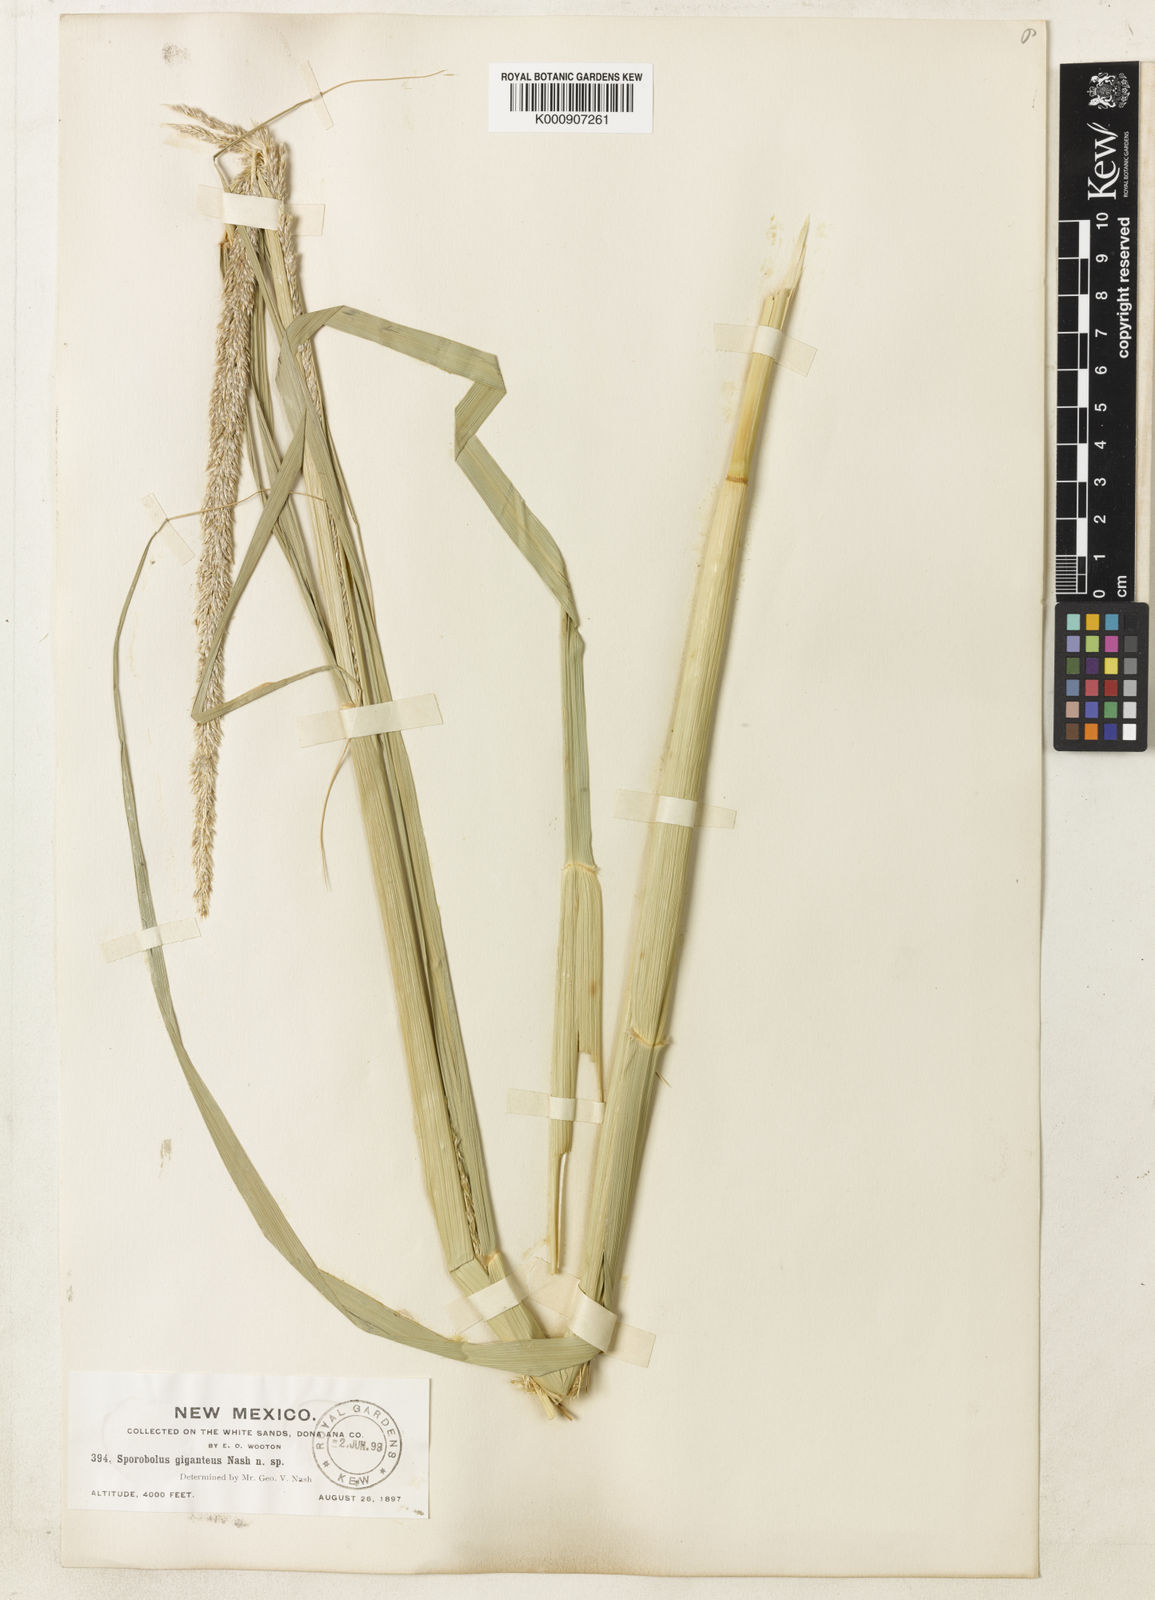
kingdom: Plantae
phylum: Tracheophyta
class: Liliopsida
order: Poales
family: Poaceae
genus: Sporobolus
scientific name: Sporobolus giganteus
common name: Giant dropseed
